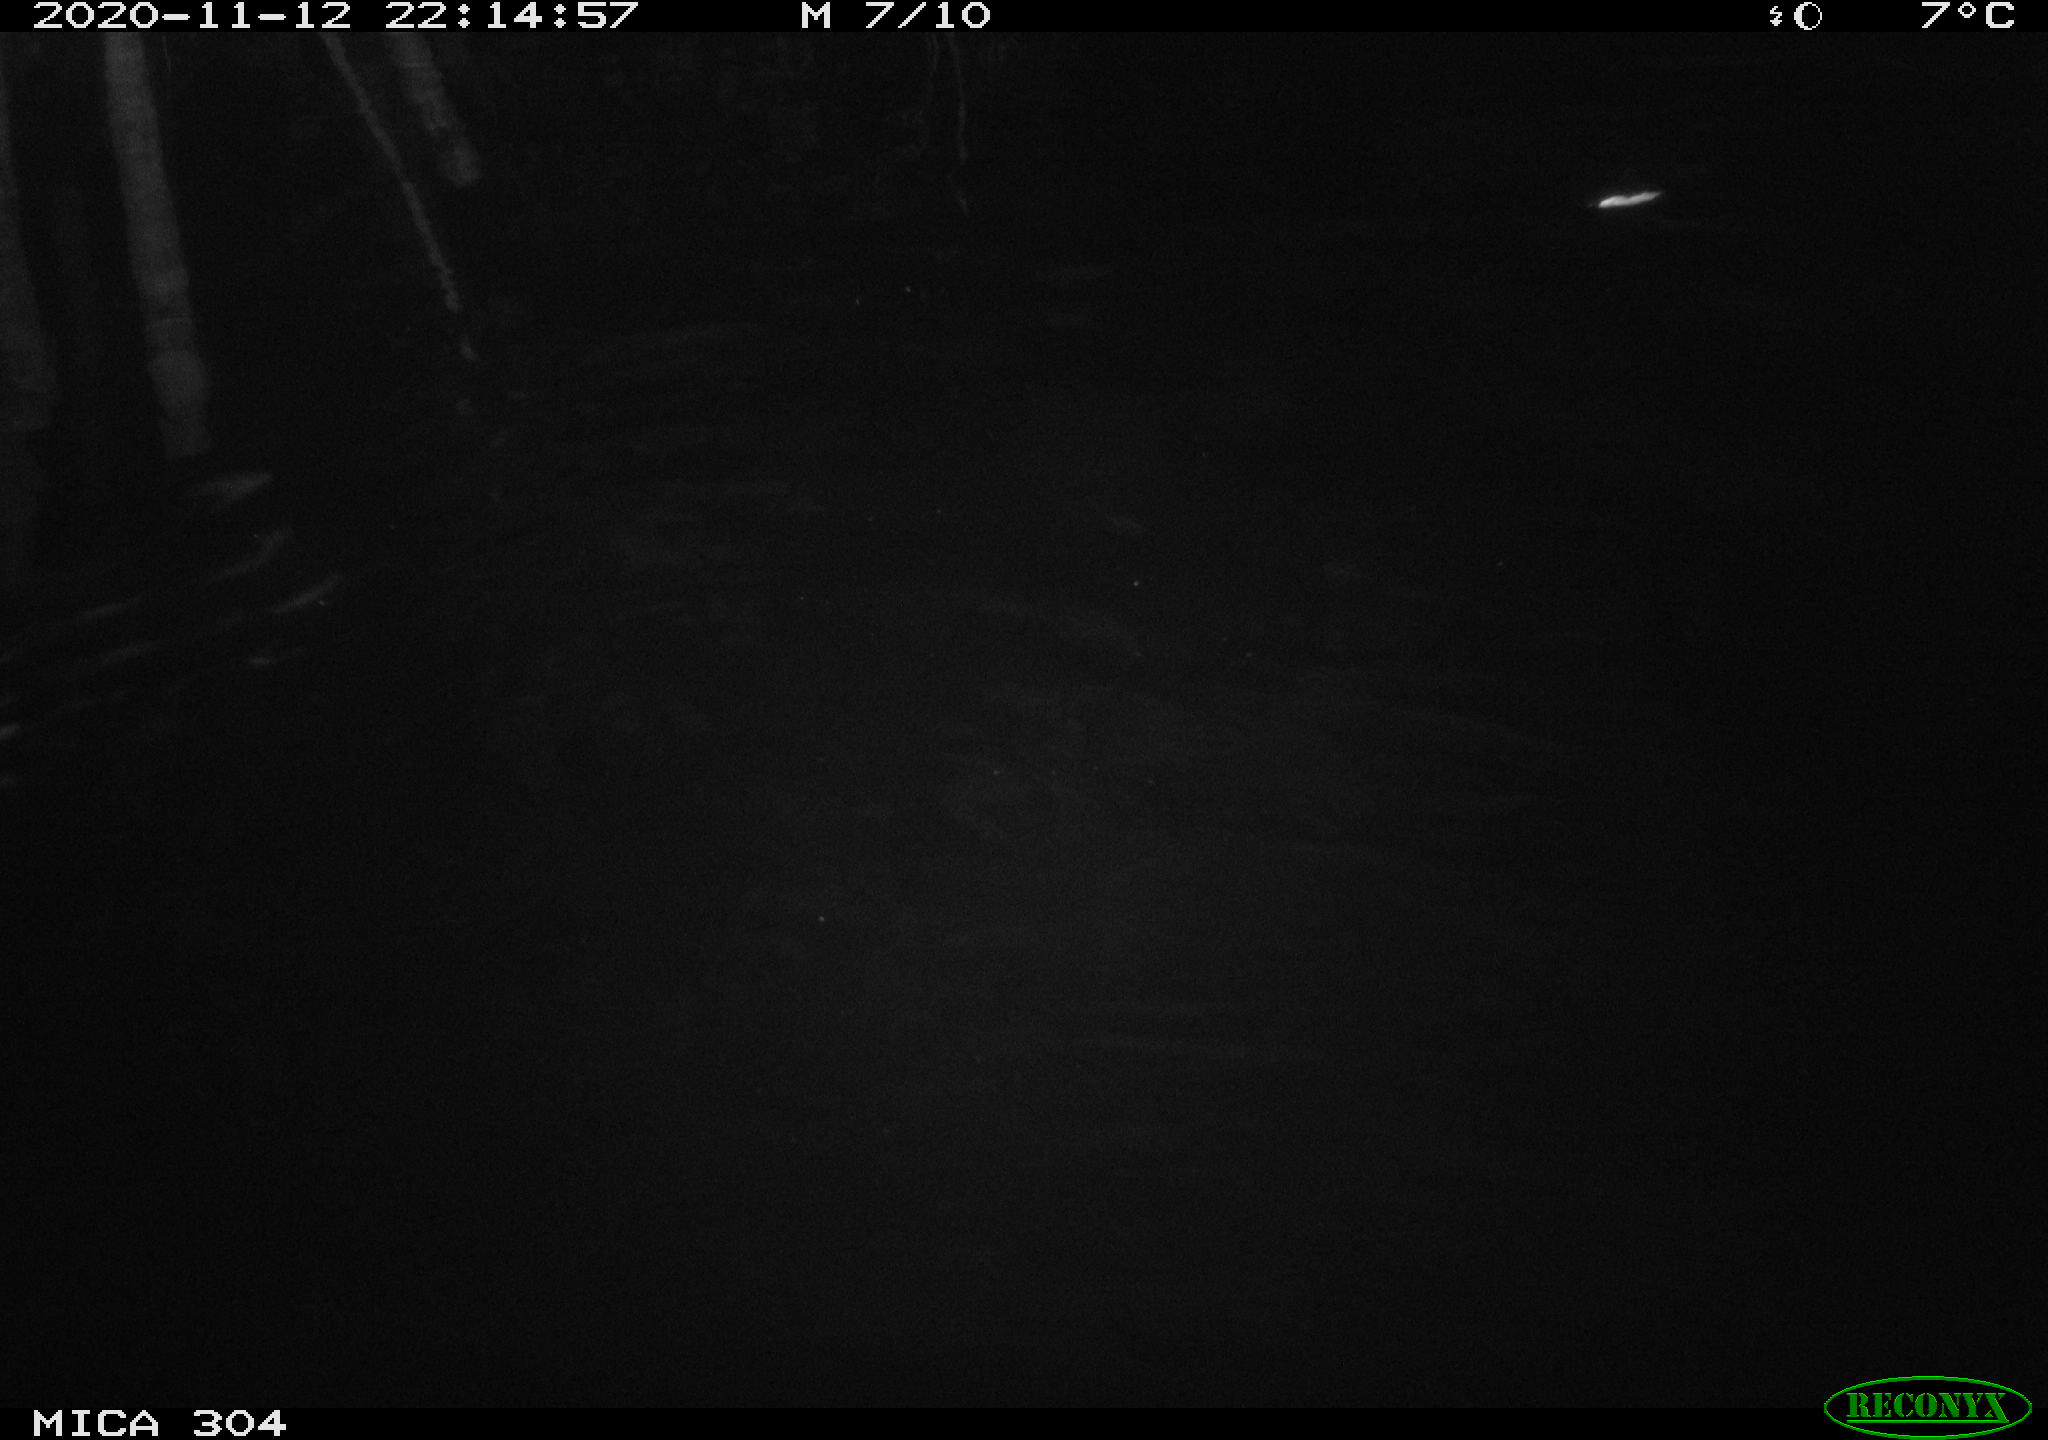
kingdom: Animalia
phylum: Chordata
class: Mammalia
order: Rodentia
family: Cricetidae
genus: Ondatra
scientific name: Ondatra zibethicus
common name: Muskrat
